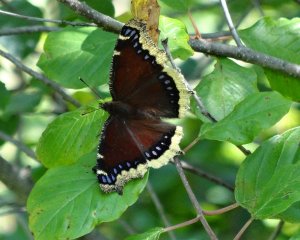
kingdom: Animalia
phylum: Arthropoda
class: Insecta
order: Lepidoptera
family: Nymphalidae
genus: Nymphalis
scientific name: Nymphalis antiopa
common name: Mourning Cloak
